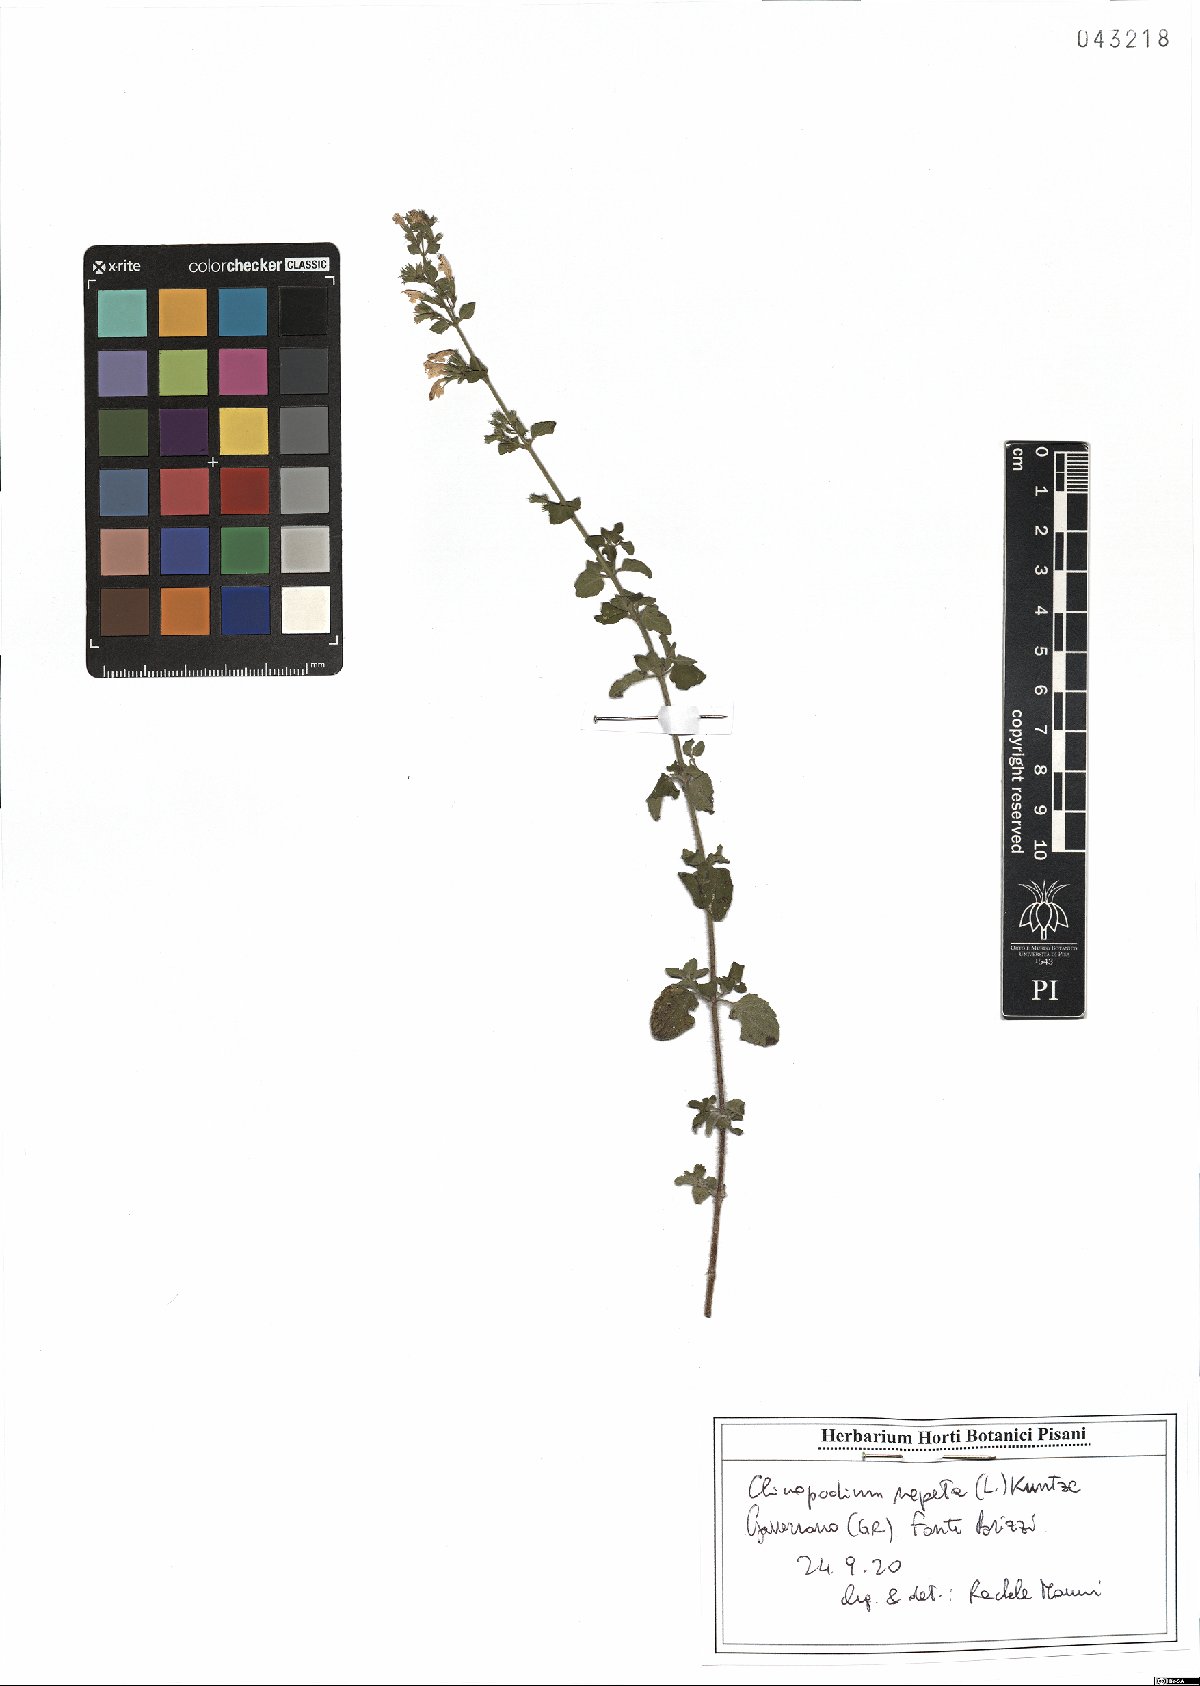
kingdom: Plantae
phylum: Tracheophyta
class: Magnoliopsida
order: Lamiales
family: Lamiaceae
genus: Clinopodium
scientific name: Clinopodium nepeta
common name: Lesser calamint
